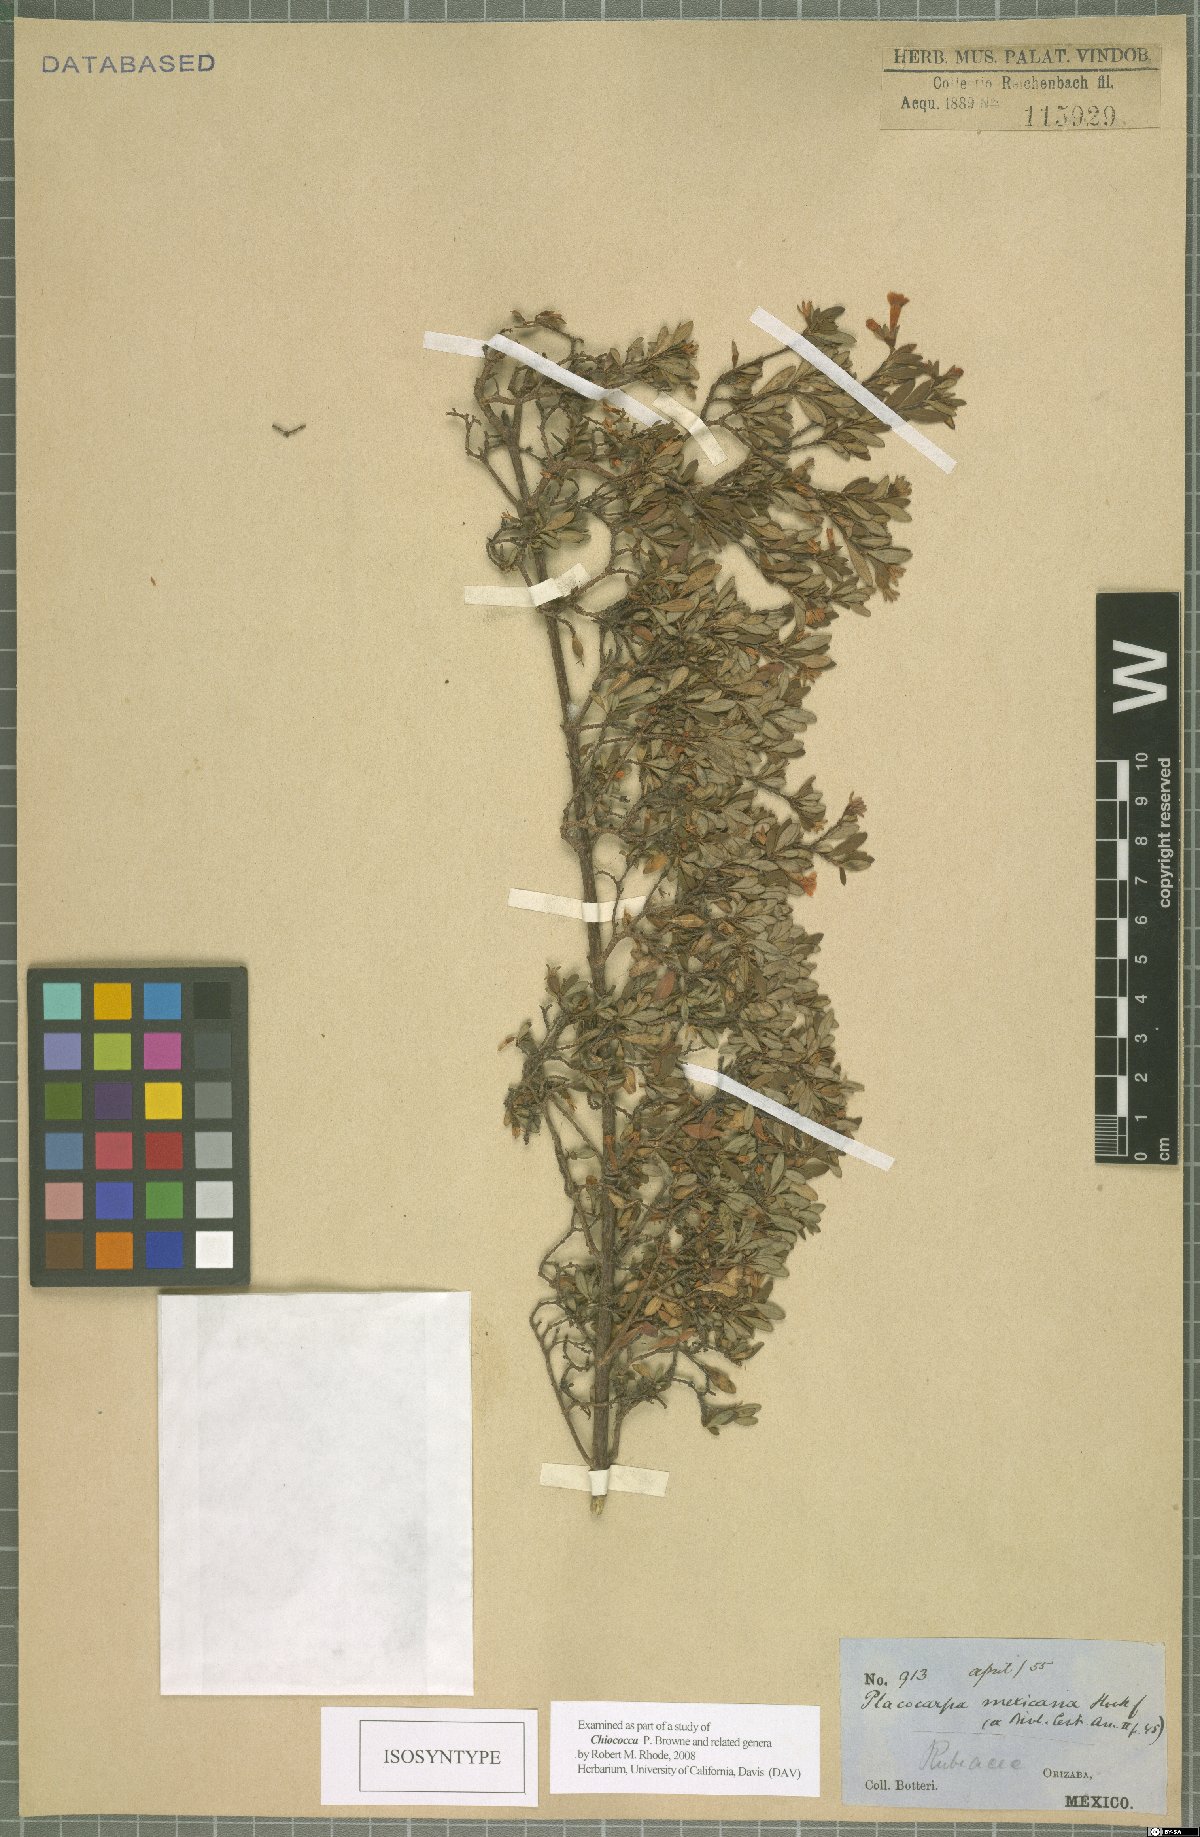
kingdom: Plantae
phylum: Tracheophyta
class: Magnoliopsida
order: Gentianales
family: Rubiaceae
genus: Placocarpa
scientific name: Placocarpa mexicana
